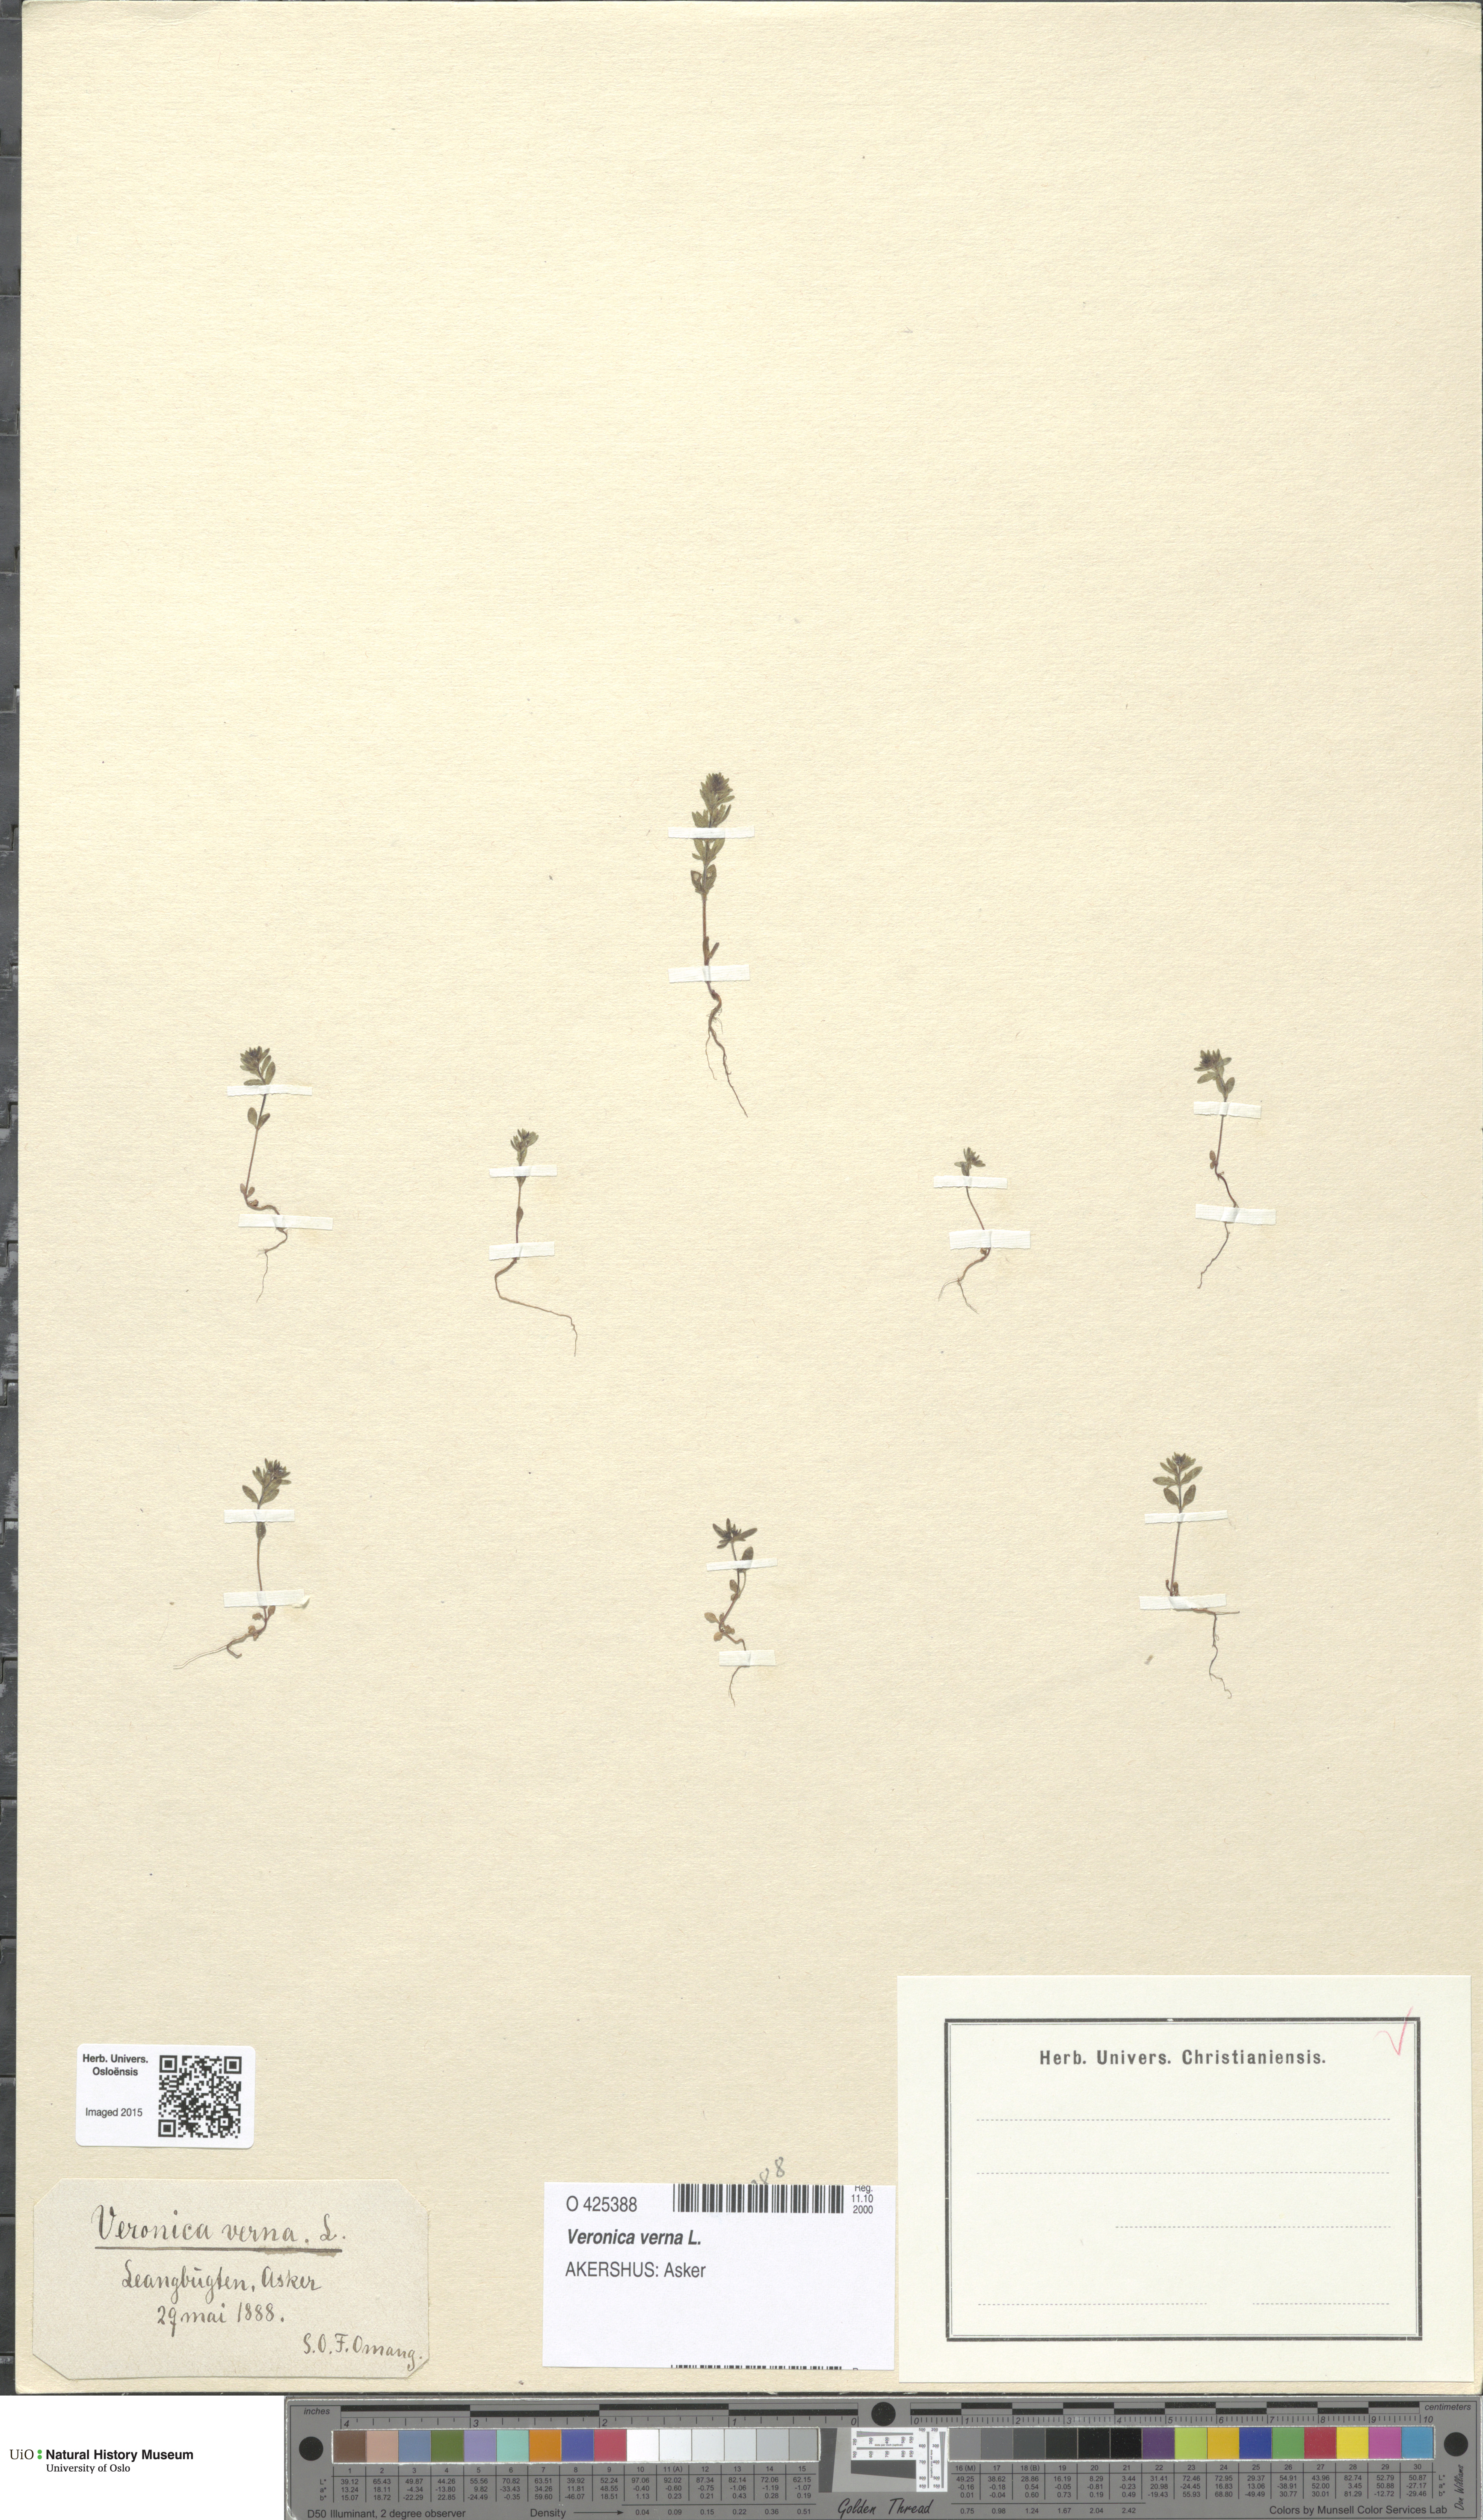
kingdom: Plantae
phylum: Tracheophyta
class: Magnoliopsida
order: Lamiales
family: Plantaginaceae
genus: Veronica
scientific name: Veronica verna
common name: Spring speedwell
